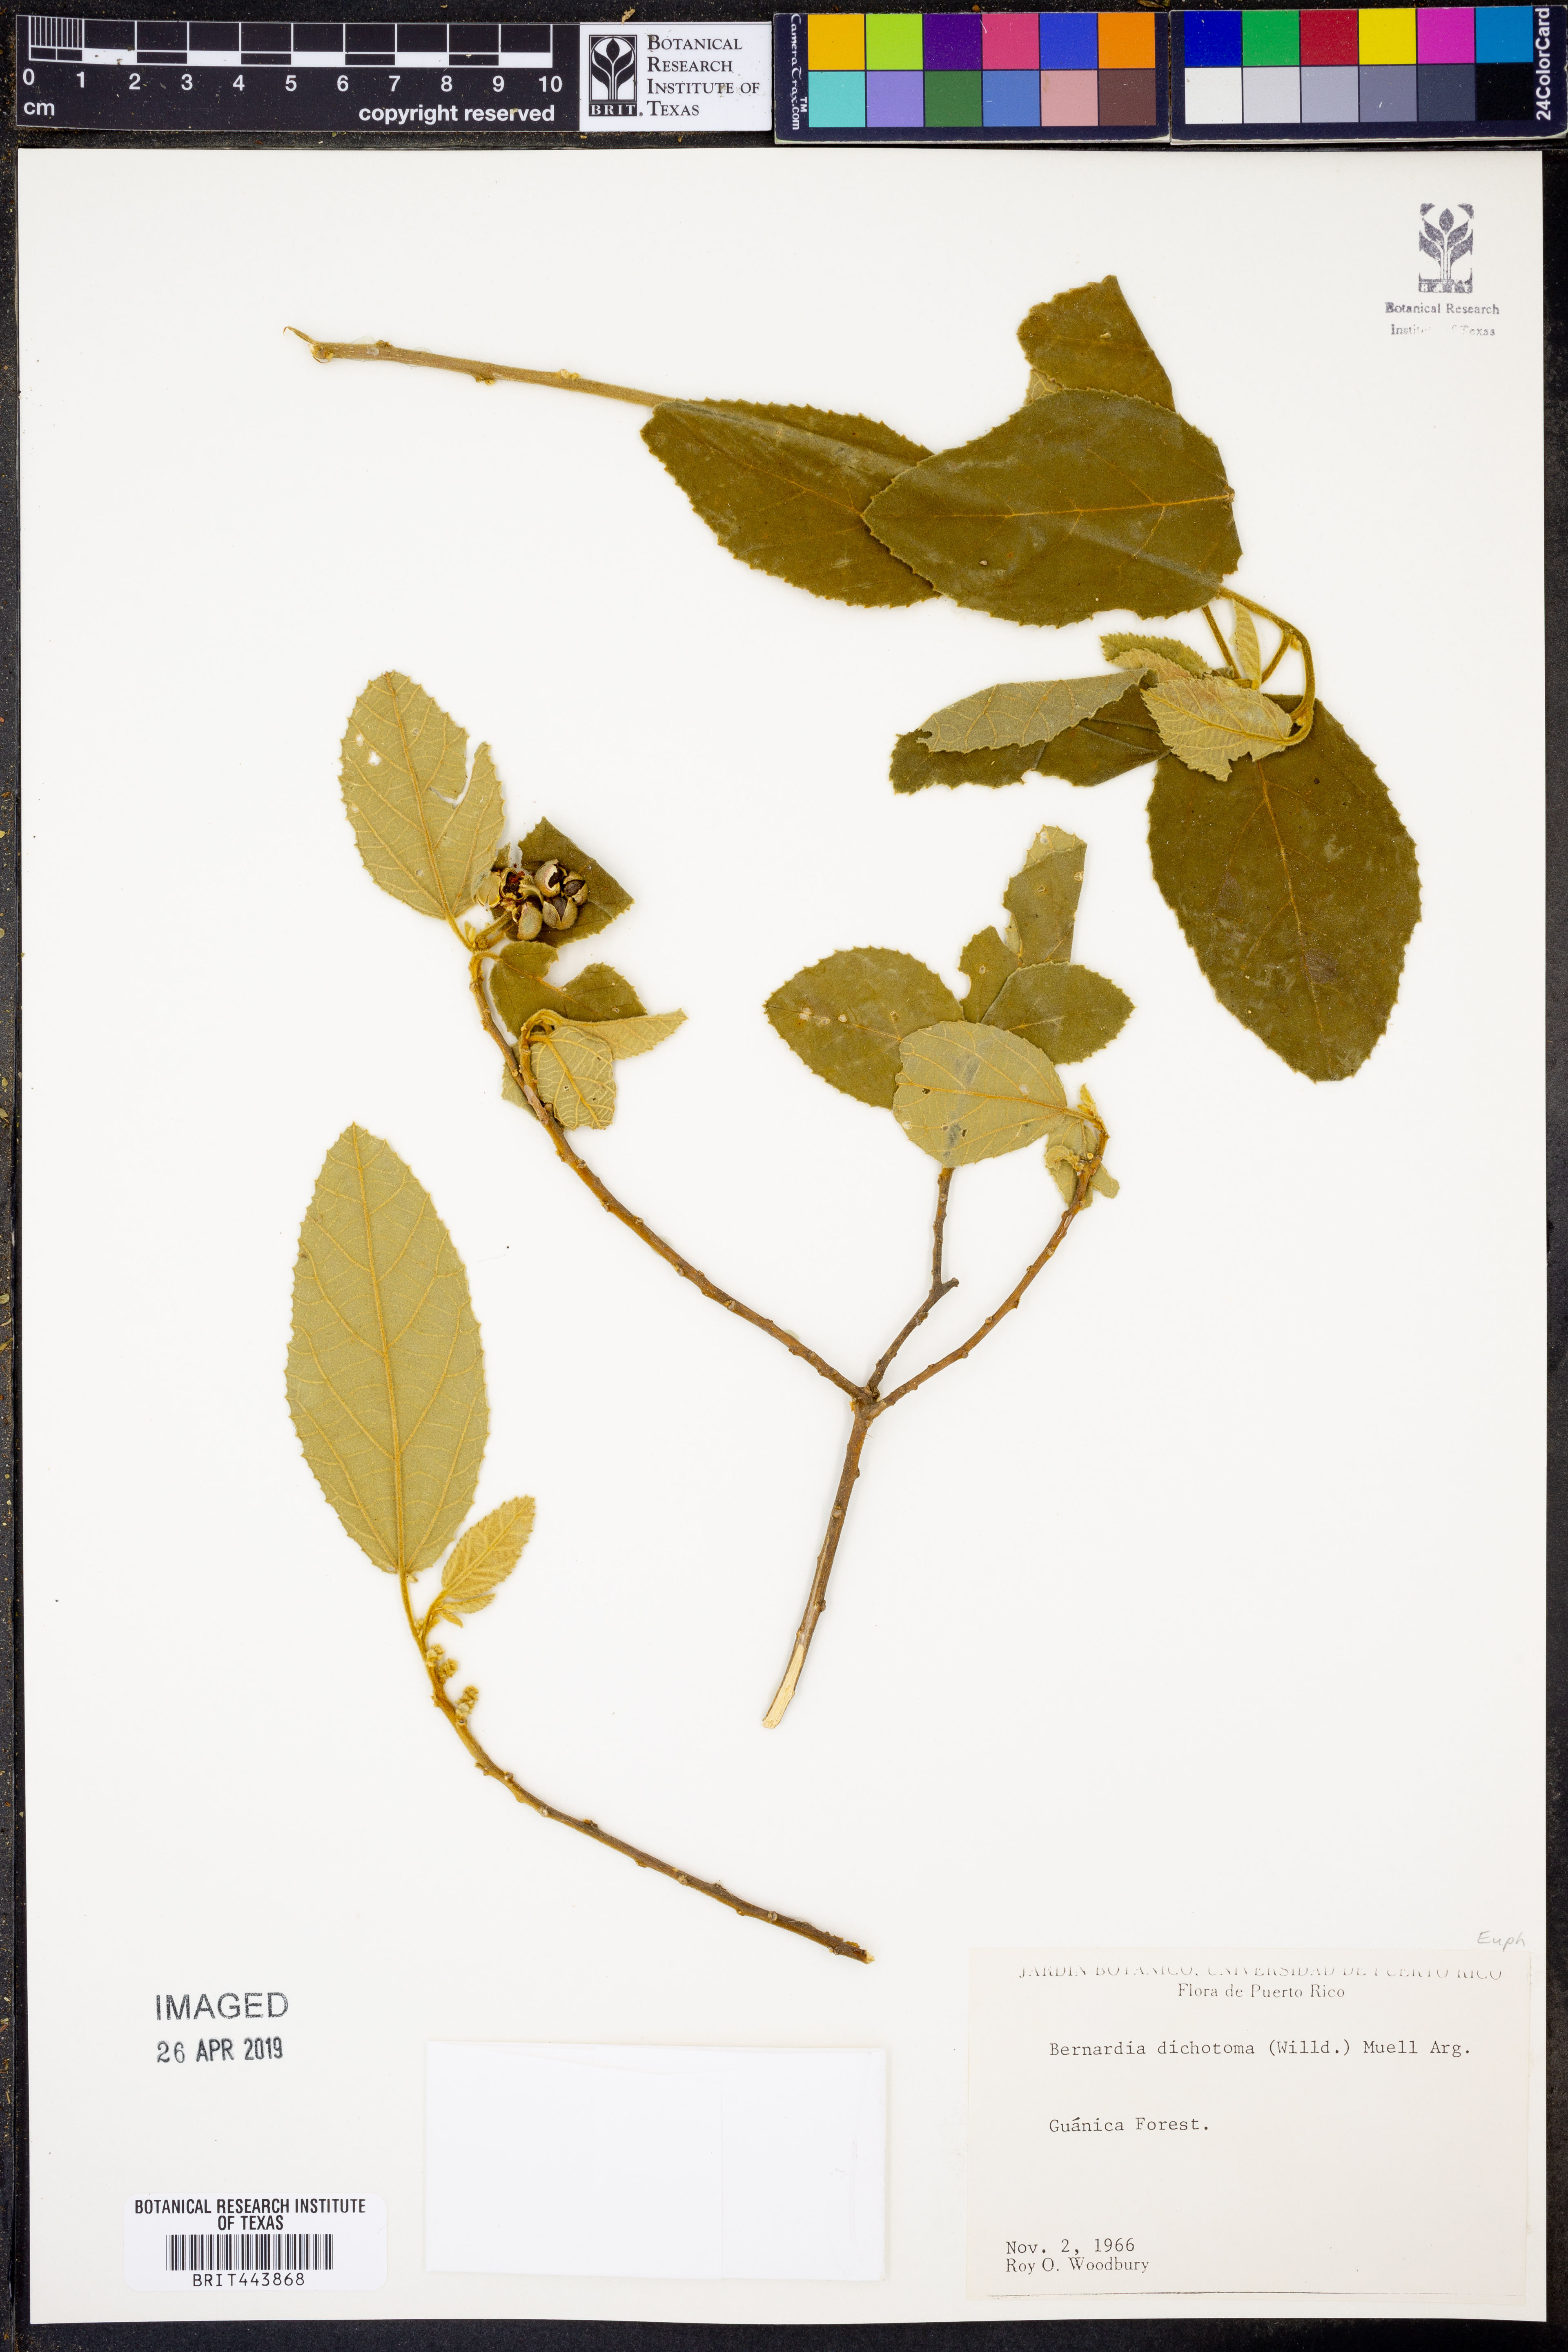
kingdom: Plantae
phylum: Tracheophyta
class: Magnoliopsida
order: Malpighiales
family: Euphorbiaceae
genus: Bernardia
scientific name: Bernardia dichotoma
